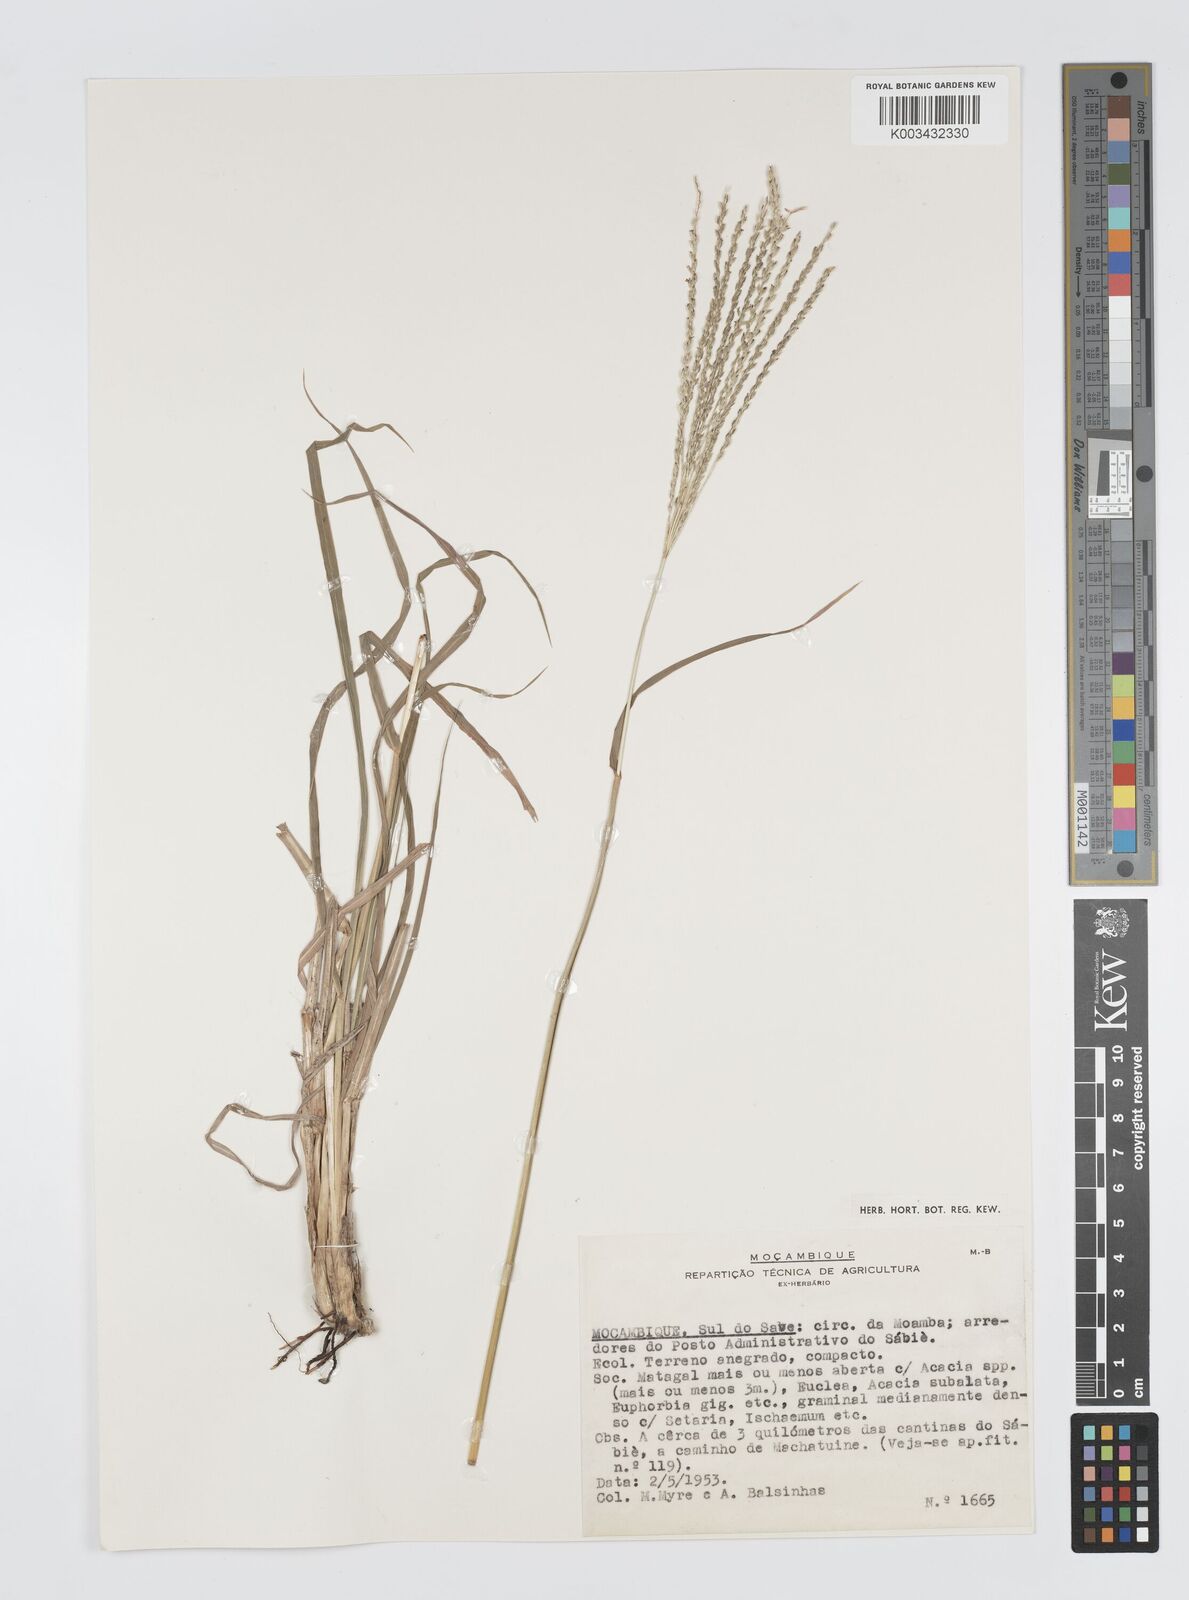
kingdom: Plantae
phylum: Tracheophyta
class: Liliopsida
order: Poales
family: Poaceae
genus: Digitaria
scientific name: Digitaria eriantha
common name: Digitgrass
